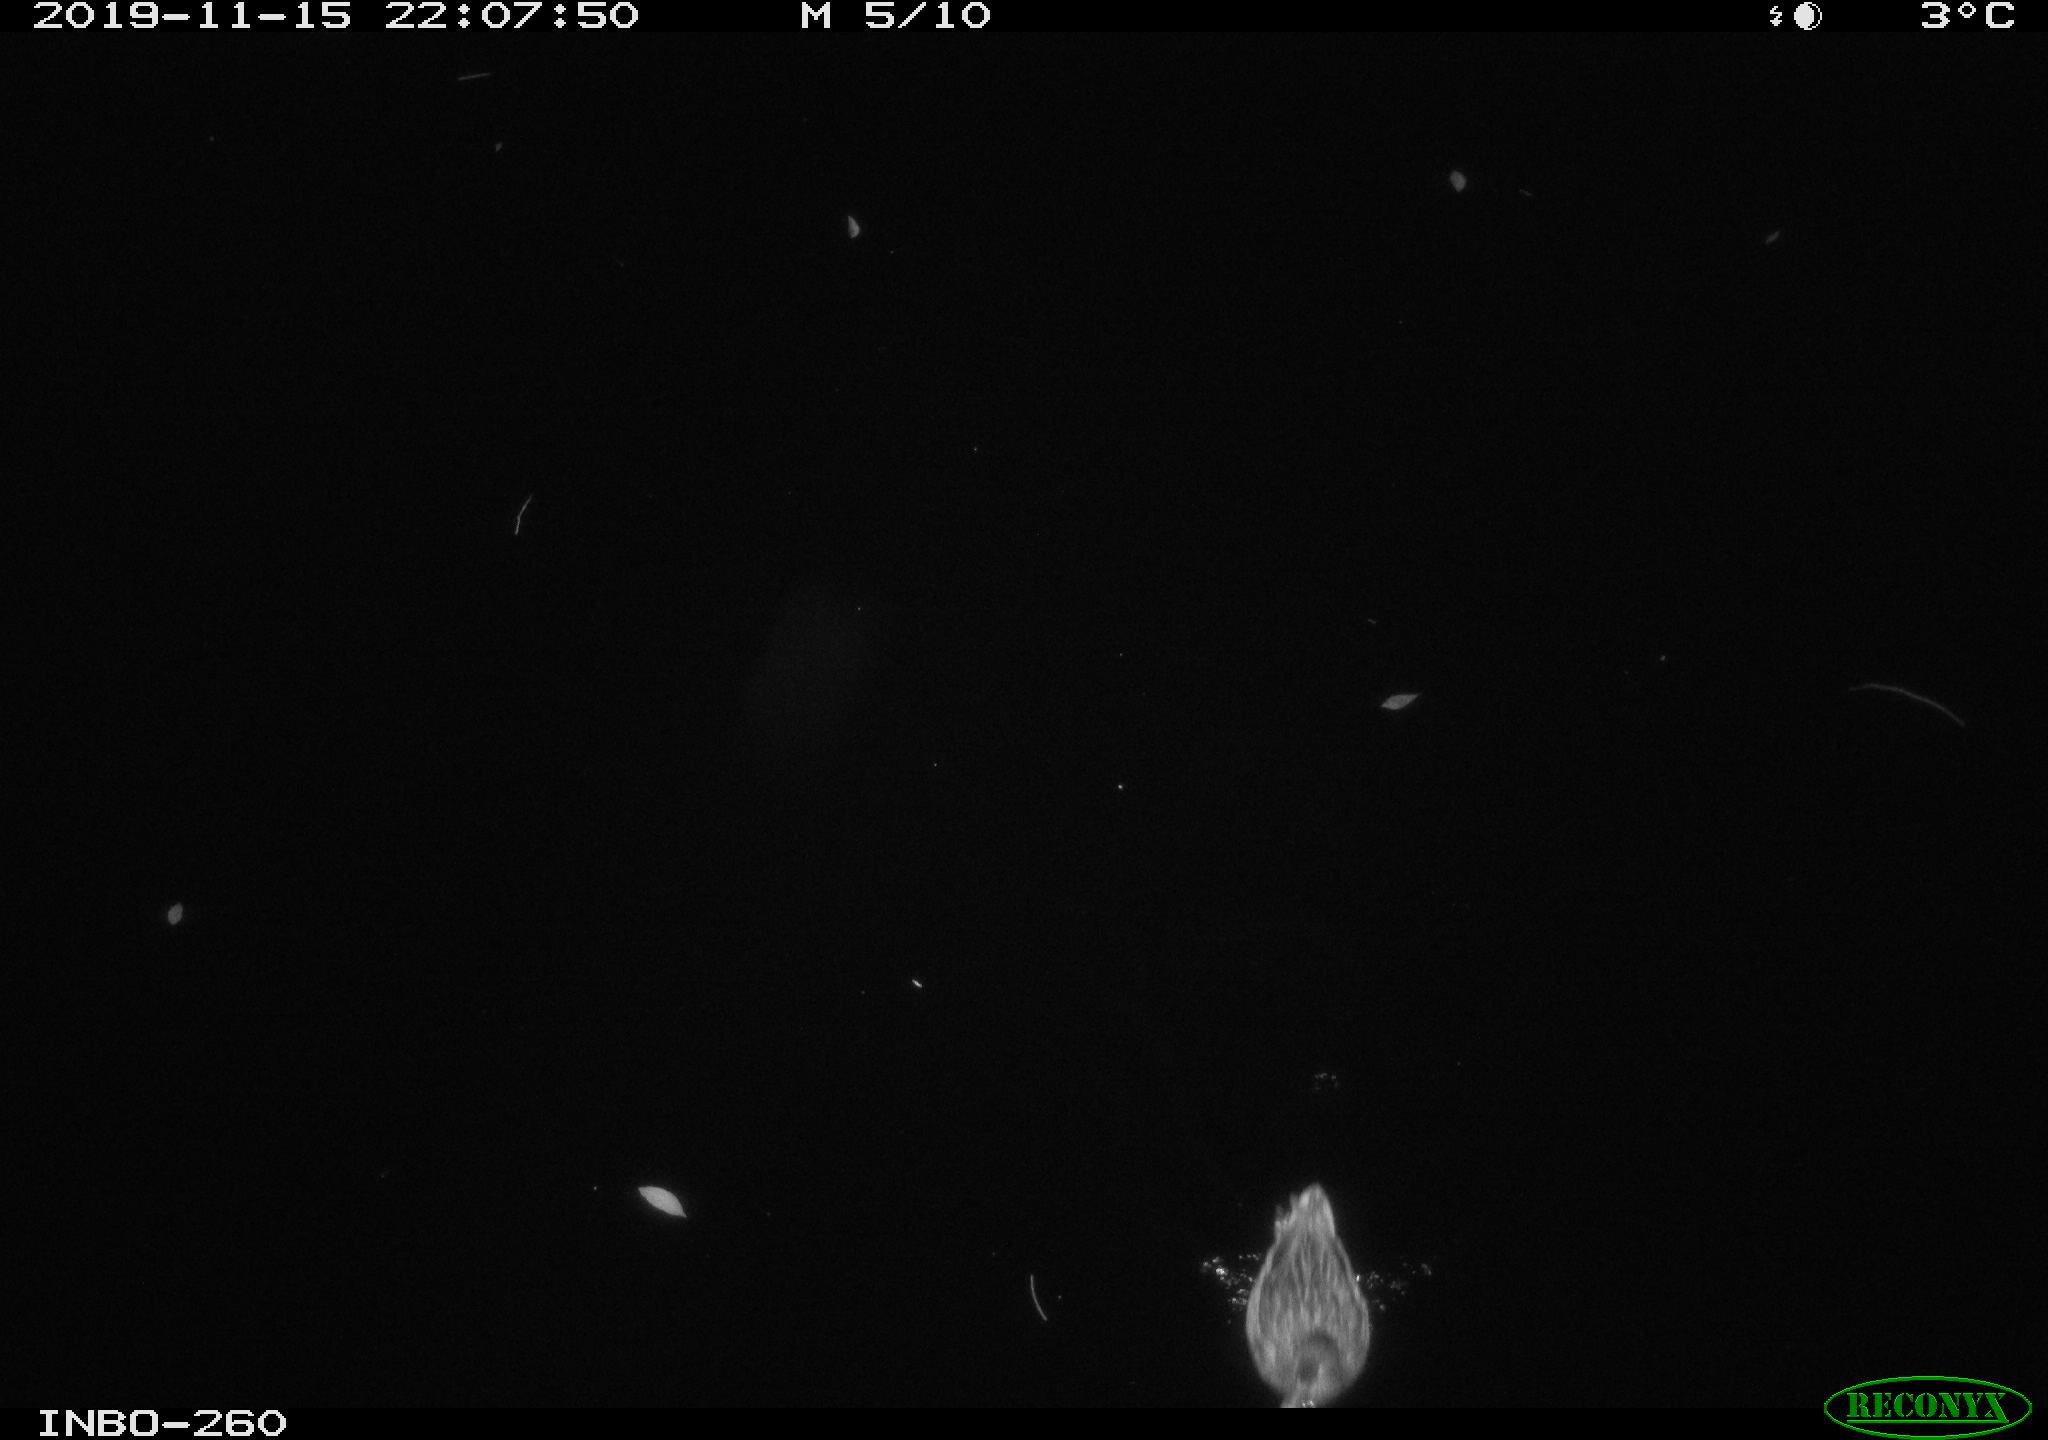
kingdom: Animalia
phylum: Chordata
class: Aves
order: Anseriformes
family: Anatidae
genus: Anas
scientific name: Anas platyrhynchos
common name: Mallard
